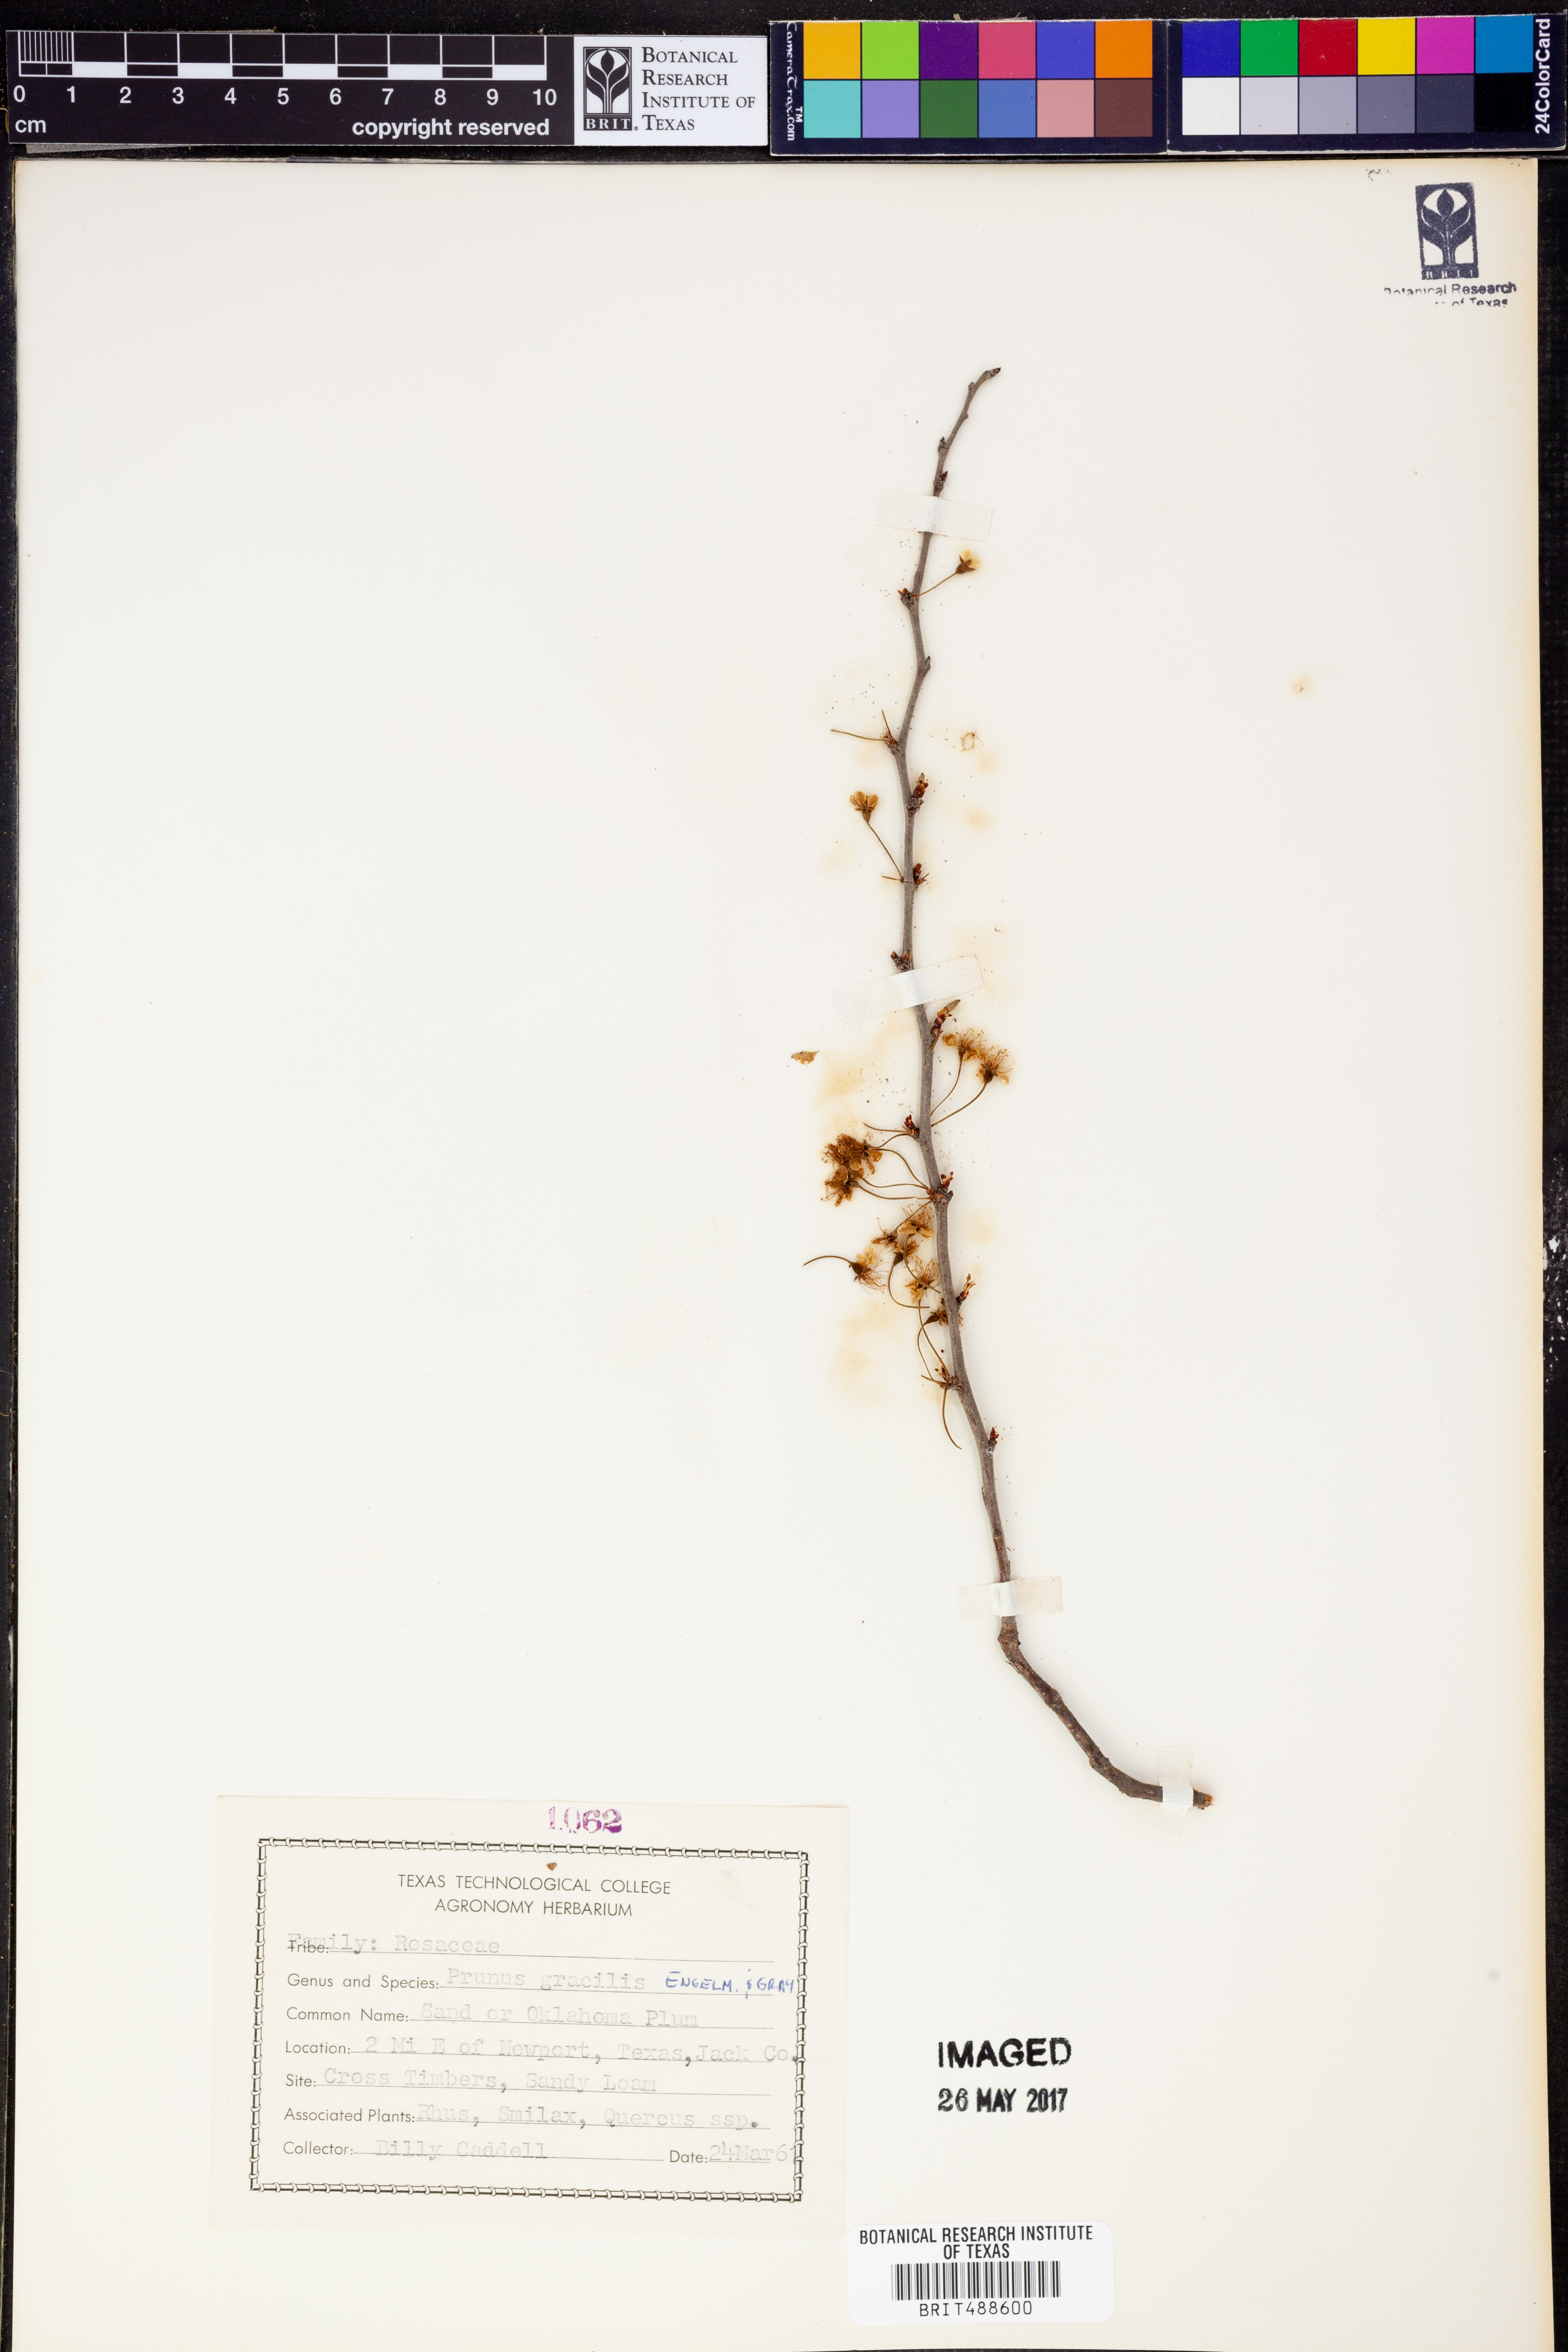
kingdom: Plantae
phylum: Tracheophyta
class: Magnoliopsida
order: Rosales
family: Rosaceae
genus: Prunus
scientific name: Prunus gracilis
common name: Oklahoma plum
